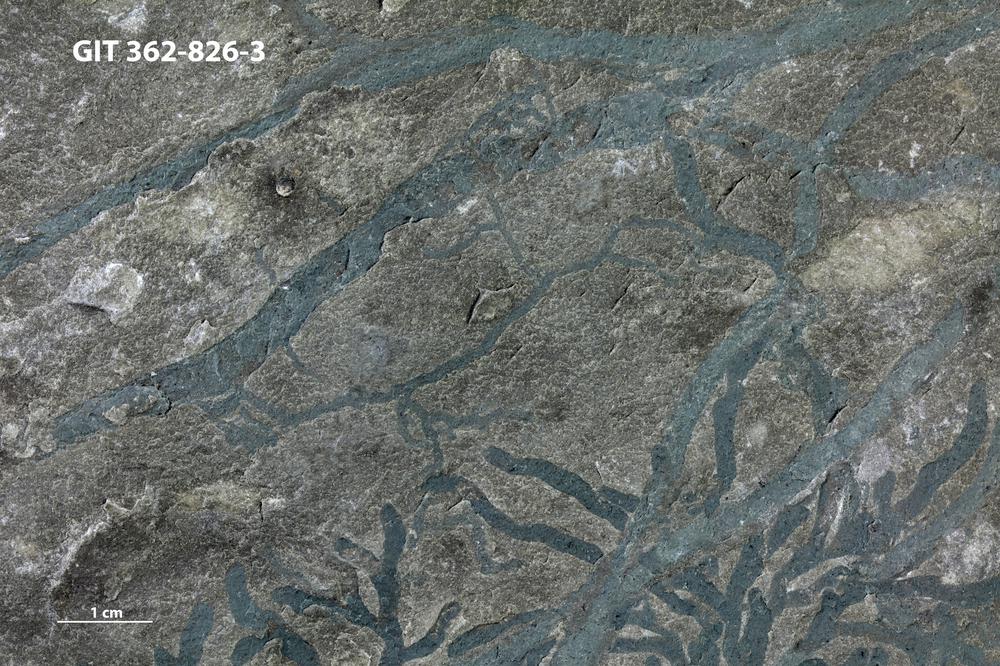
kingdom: Animalia
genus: Pilichnus
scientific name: Pilichnus
